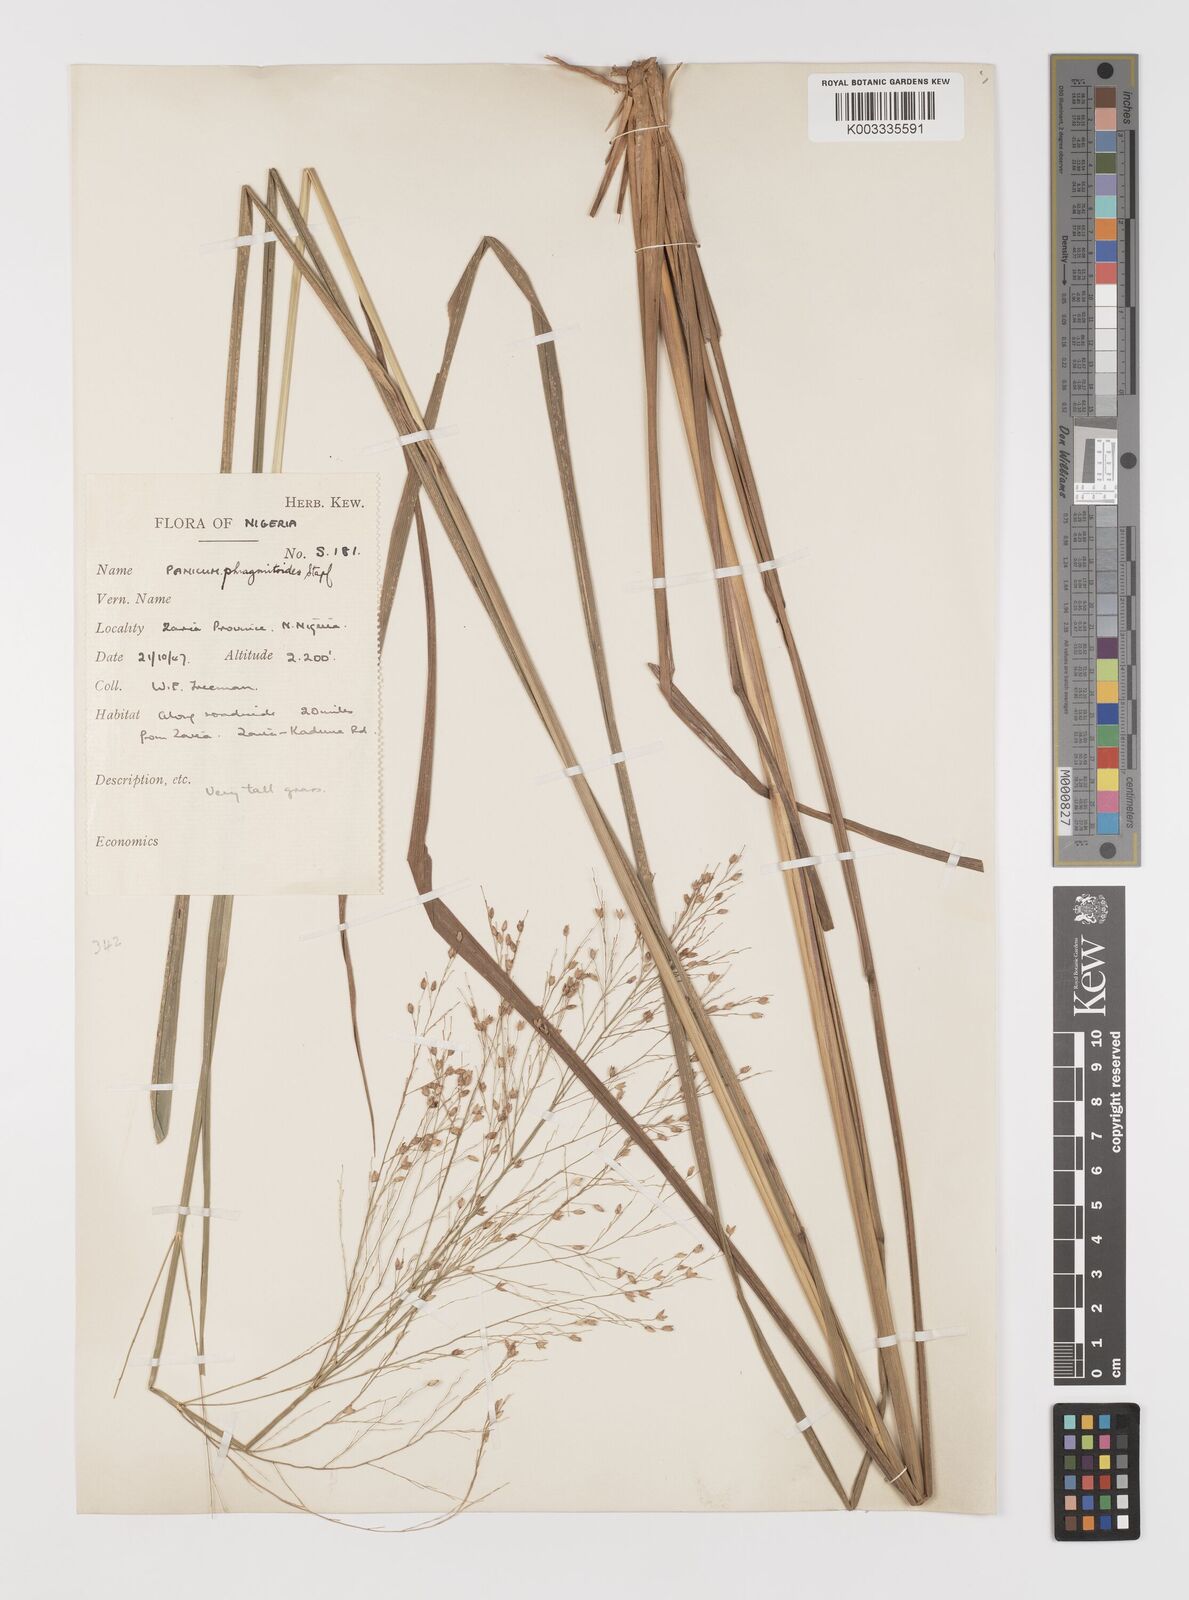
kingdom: Plantae
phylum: Tracheophyta
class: Liliopsida
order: Poales
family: Poaceae
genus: Panicum
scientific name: Panicum phragmitoides
